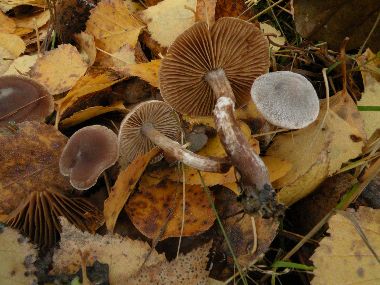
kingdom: Fungi
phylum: Basidiomycota
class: Agaricomycetes
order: Agaricales
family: Cortinariaceae
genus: Cortinarius
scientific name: Cortinarius hemitrichus
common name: hvidfnugget slørhat
